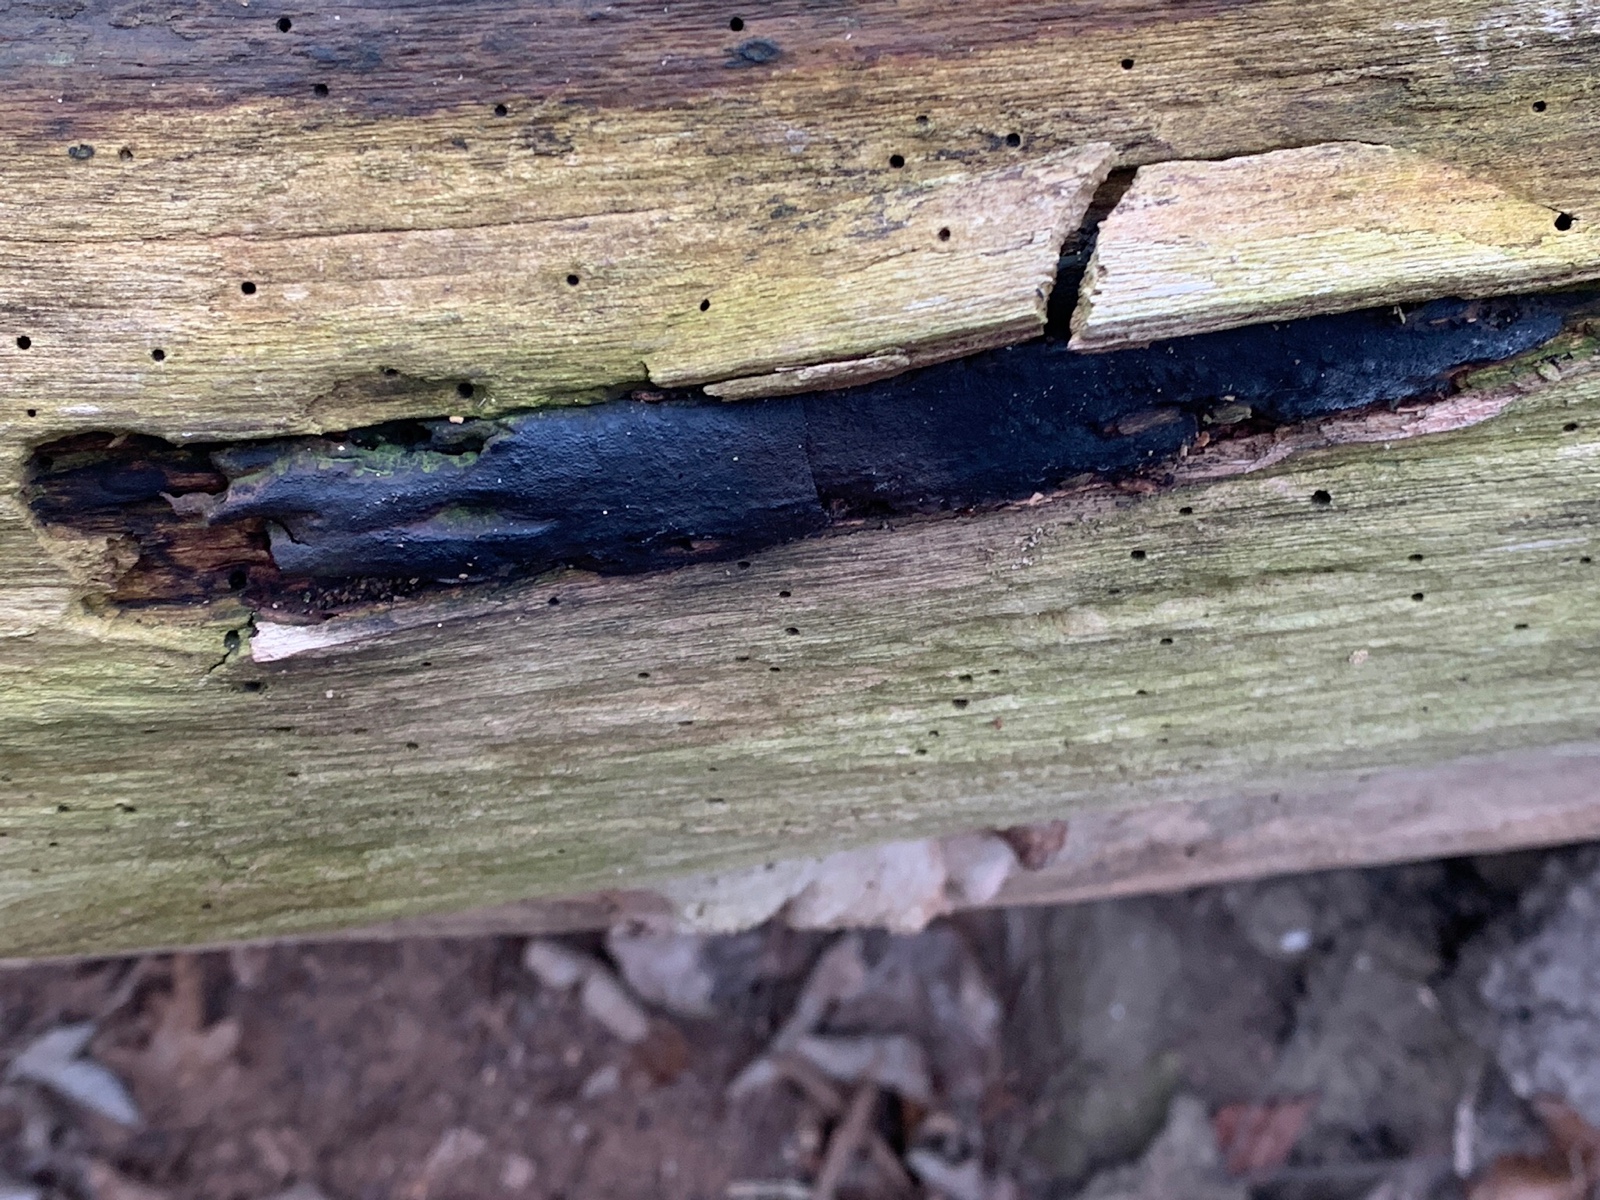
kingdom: Fungi
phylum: Ascomycota
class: Sordariomycetes
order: Boliniales
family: Boliniaceae
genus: Camarops
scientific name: Camarops polysperma
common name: elle-kulsnegl
